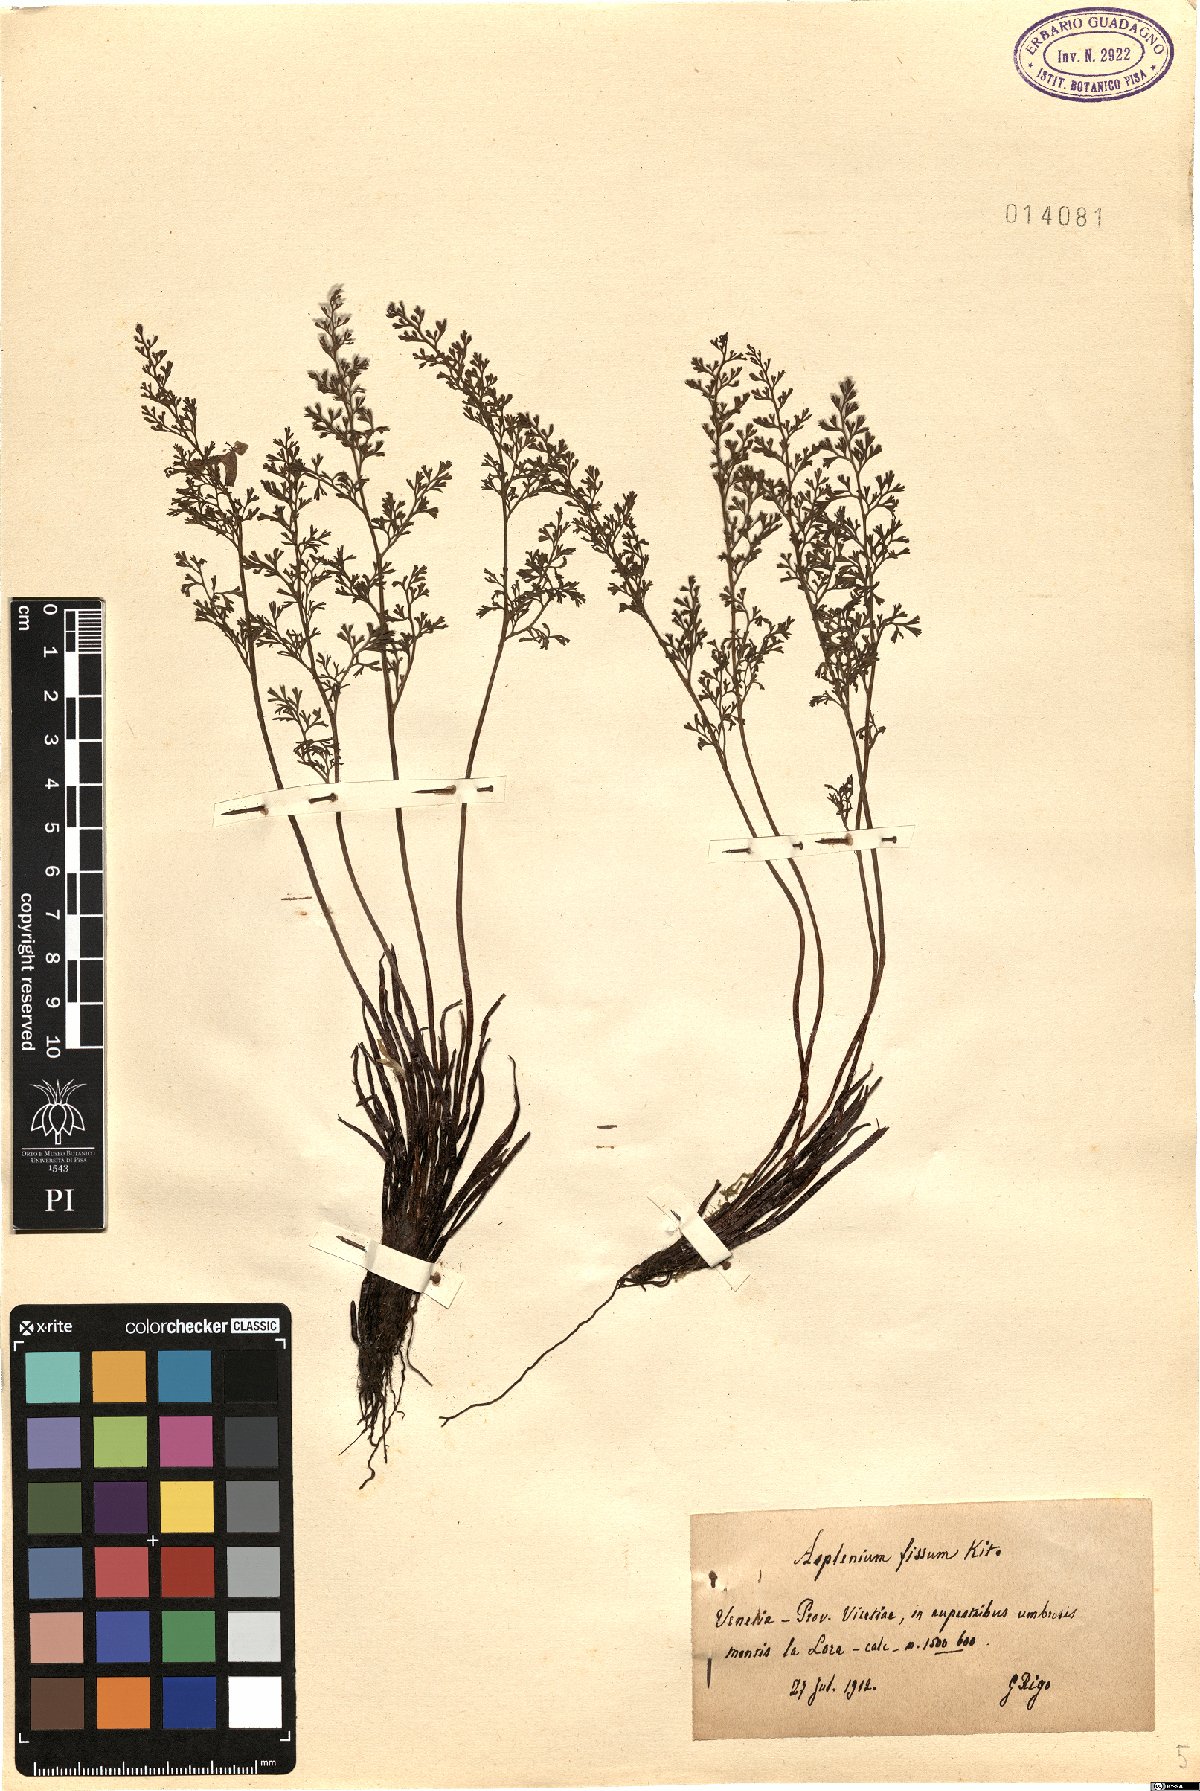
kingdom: Plantae
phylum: Tracheophyta
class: Polypodiopsida
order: Polypodiales
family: Aspleniaceae
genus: Asplenium
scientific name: Asplenium fissum
